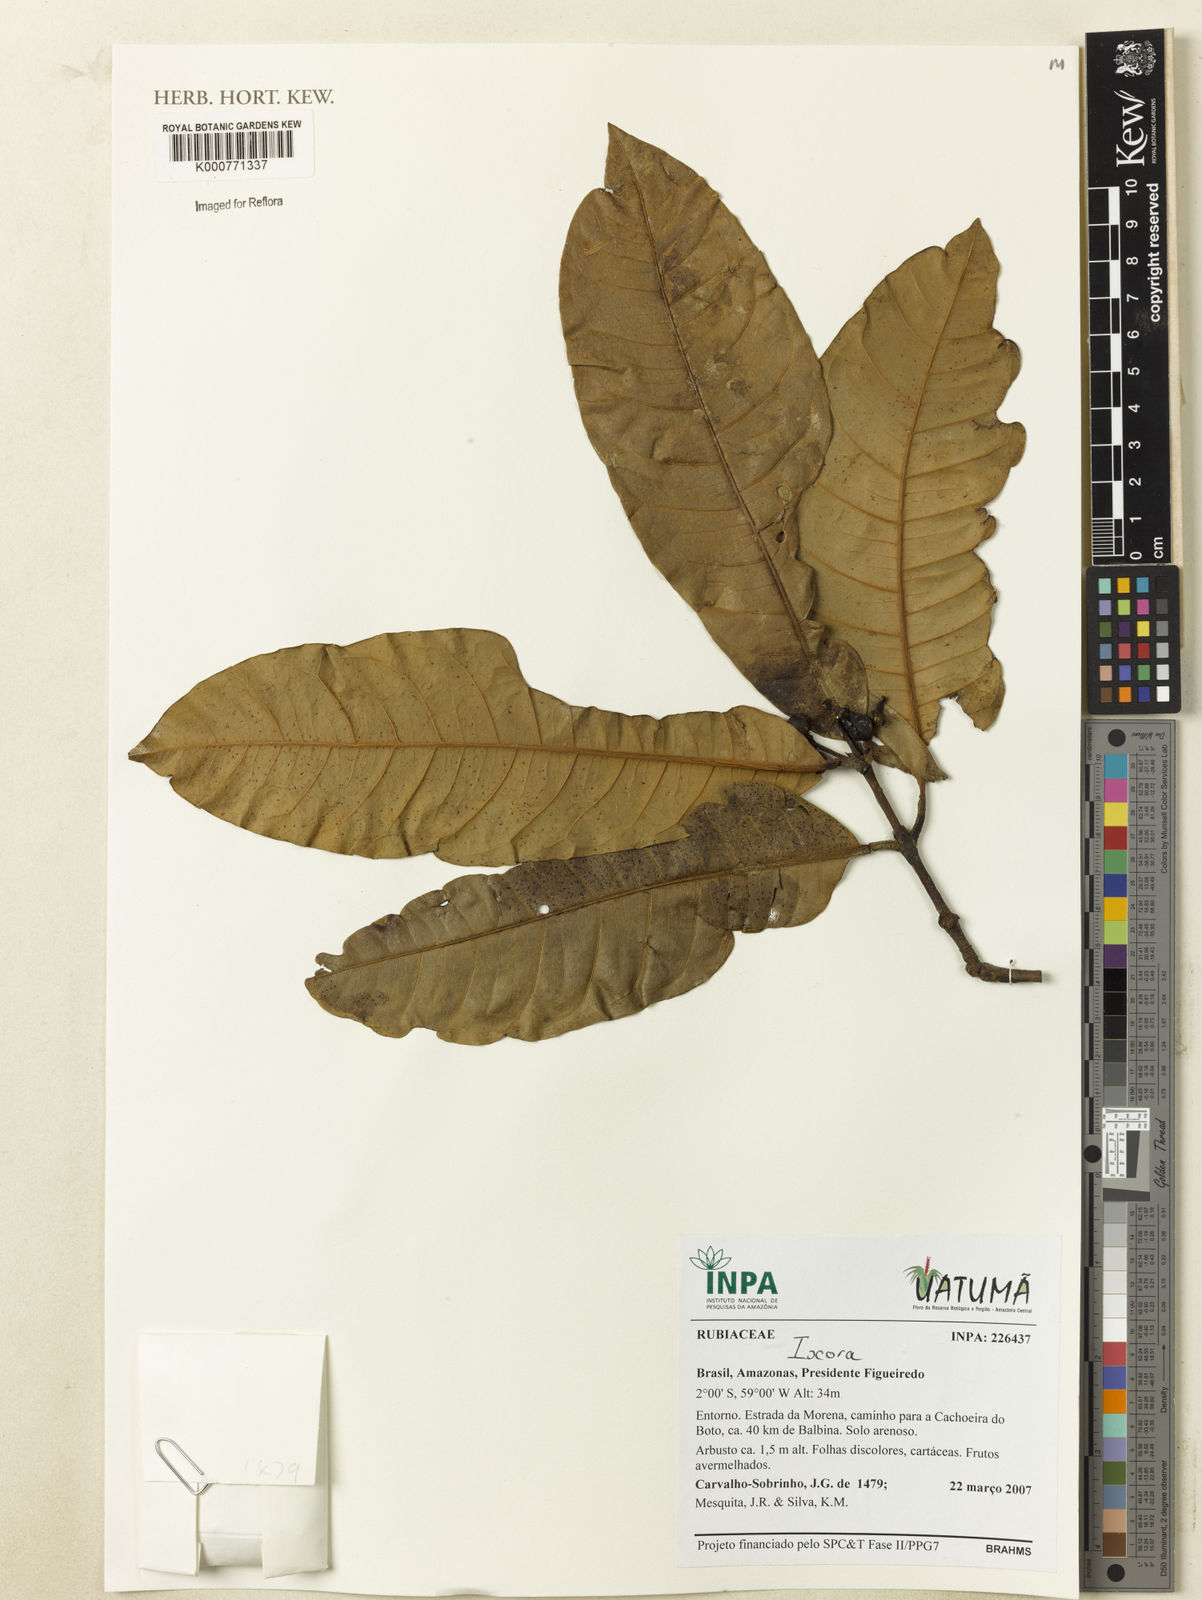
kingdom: Plantae
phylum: Tracheophyta
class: Magnoliopsida
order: Gentianales
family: Rubiaceae
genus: Ixora
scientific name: Ixora
